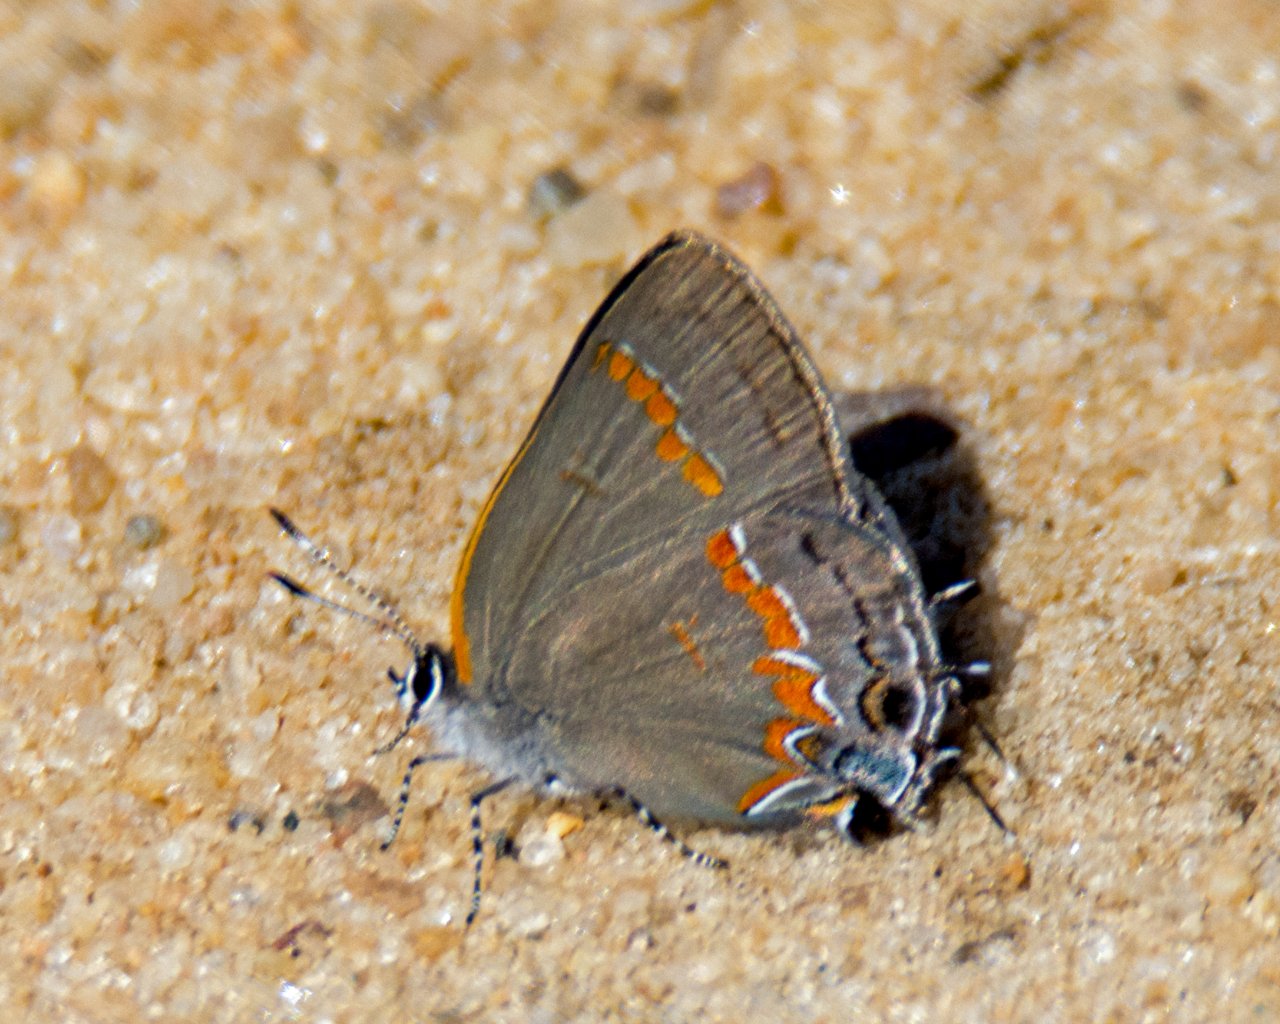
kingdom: Animalia
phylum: Arthropoda
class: Insecta
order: Lepidoptera
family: Lycaenidae
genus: Calycopis
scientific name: Calycopis cecrops
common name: Red-banded Hairstreak
